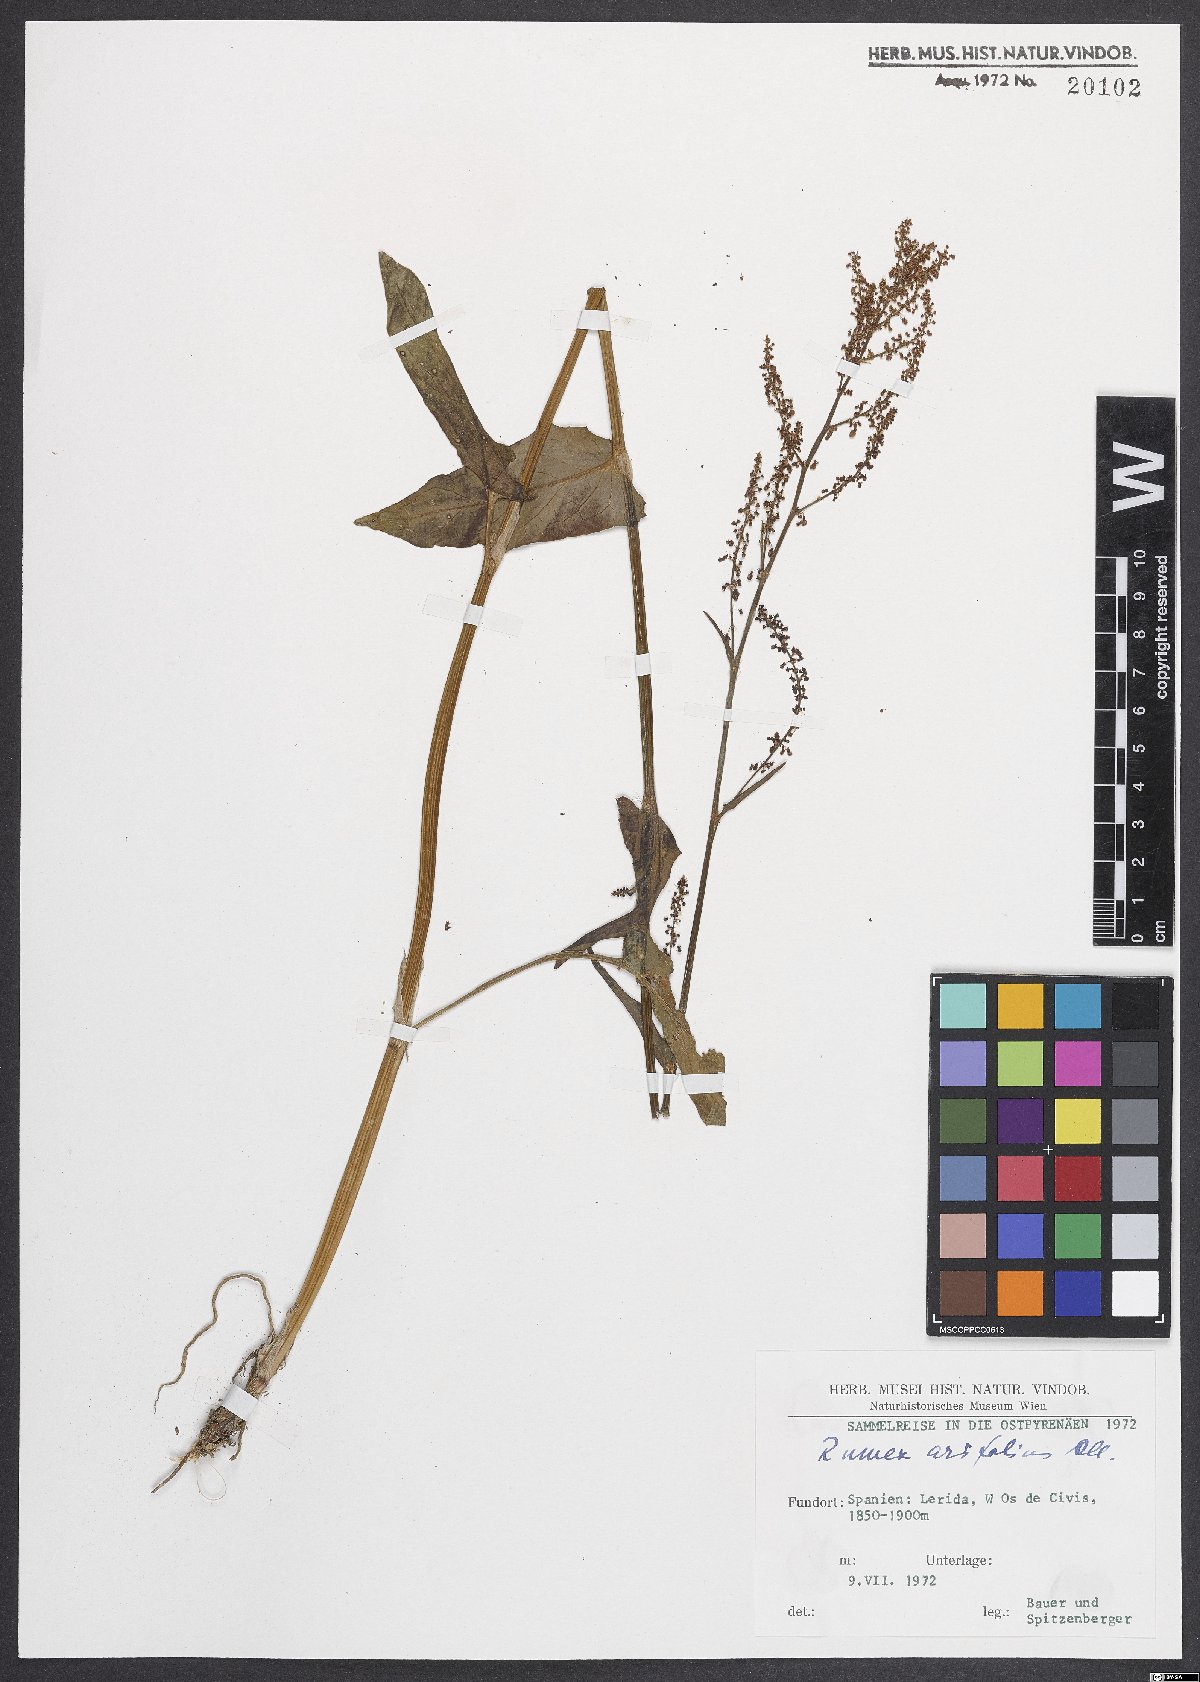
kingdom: Plantae
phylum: Tracheophyta
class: Magnoliopsida
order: Caryophyllales
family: Polygonaceae
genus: Rumex
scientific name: Rumex arifolius
